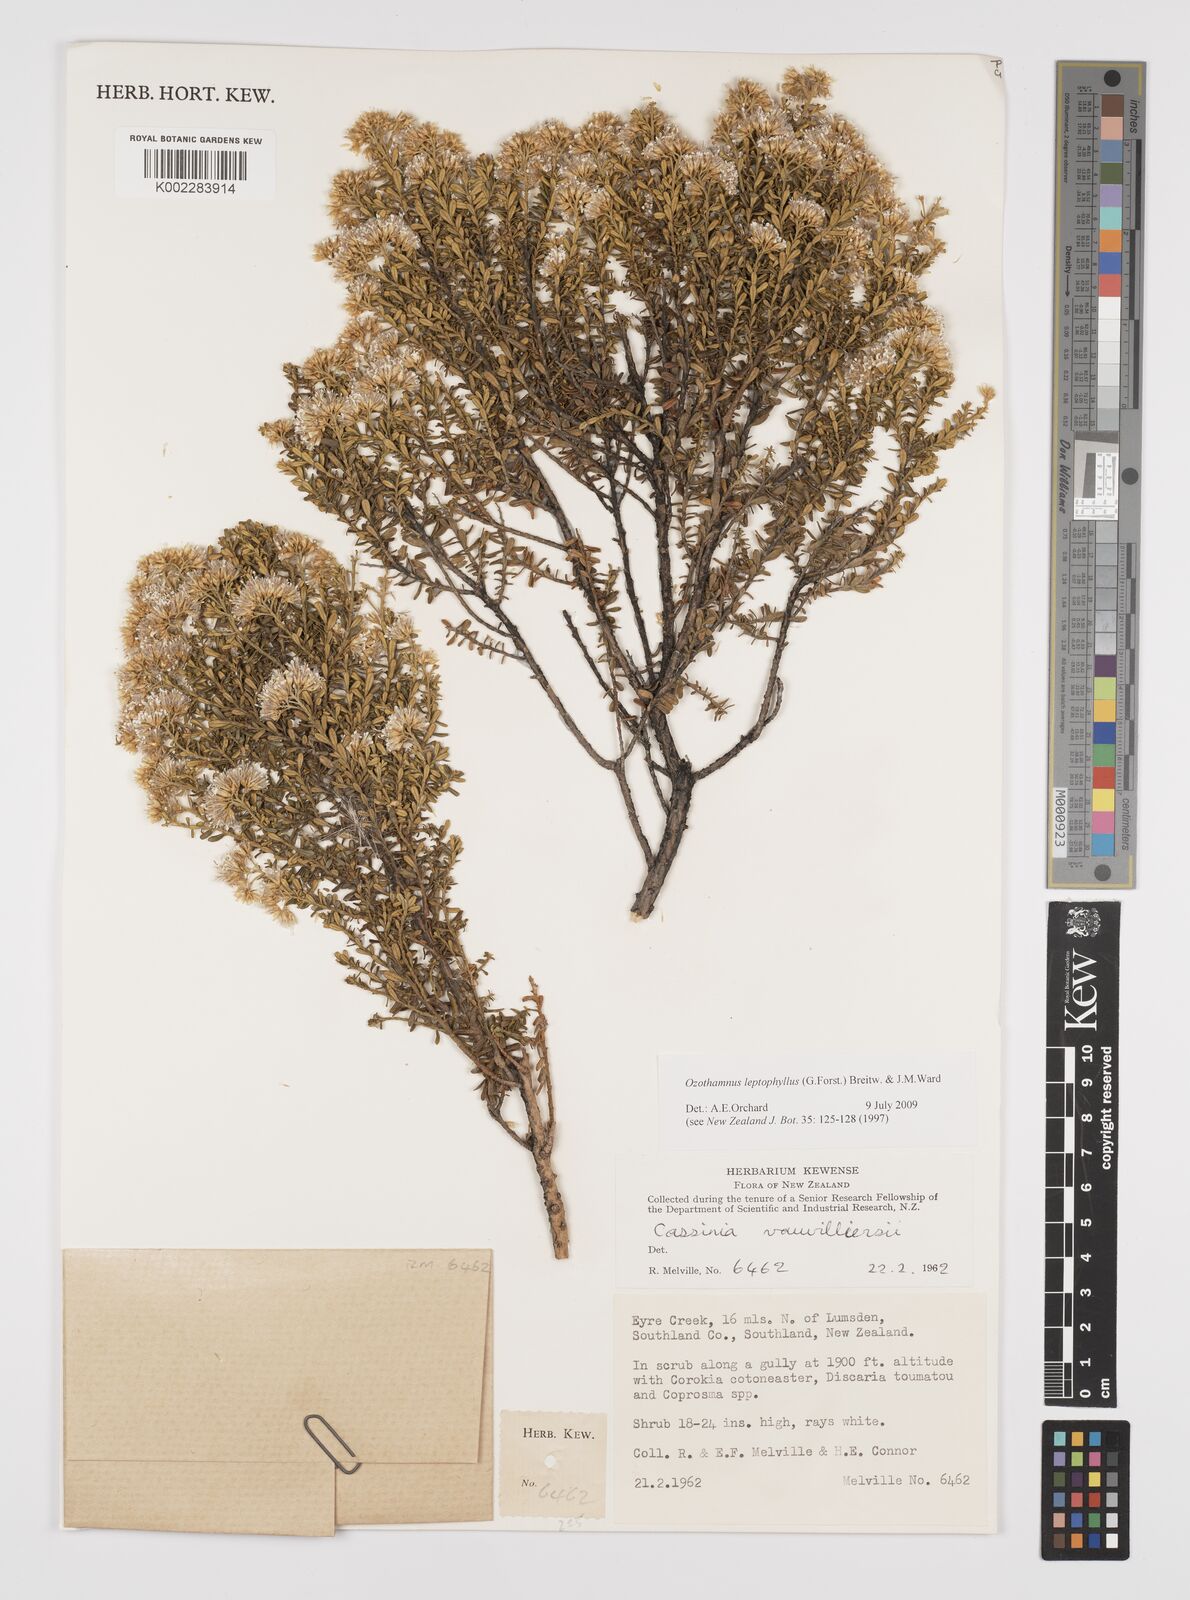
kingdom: Plantae
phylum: Tracheophyta
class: Magnoliopsida
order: Asterales
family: Asteraceae
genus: Ozothamnus
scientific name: Ozothamnus leptophyllus
